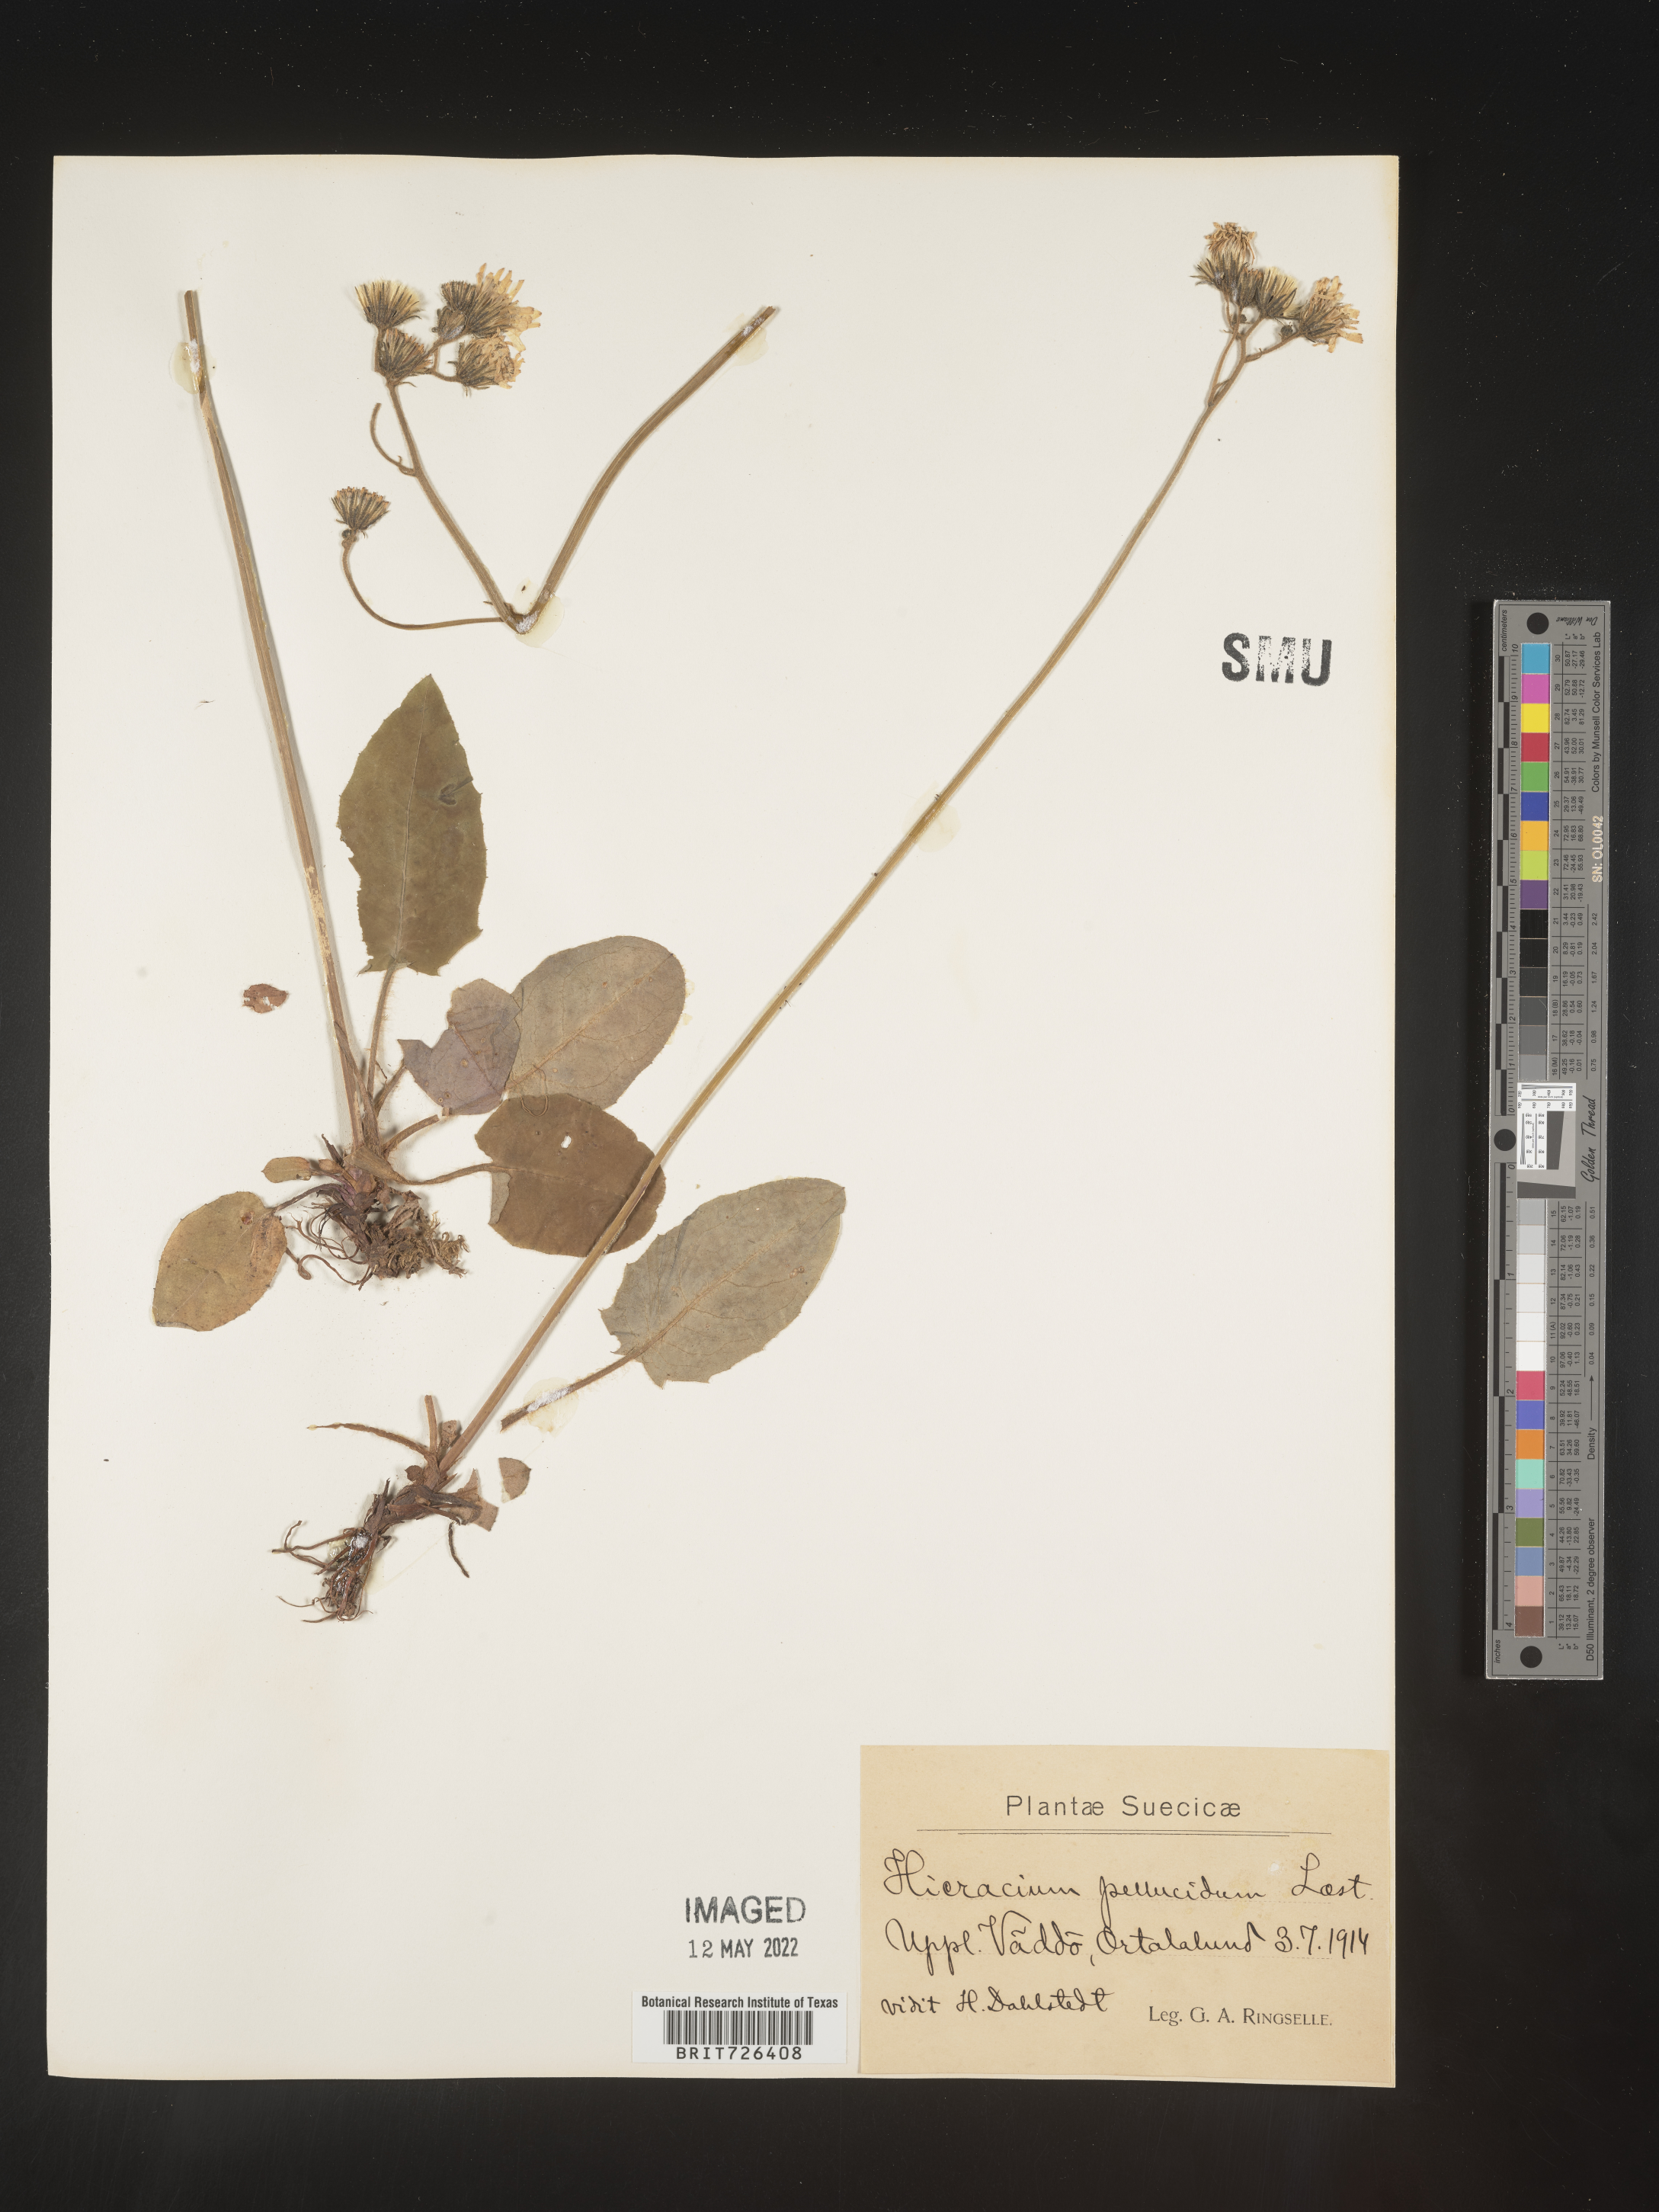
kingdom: Plantae
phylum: Tracheophyta
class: Magnoliopsida
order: Asterales
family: Asteraceae
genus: Hieracium
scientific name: Hieracium
